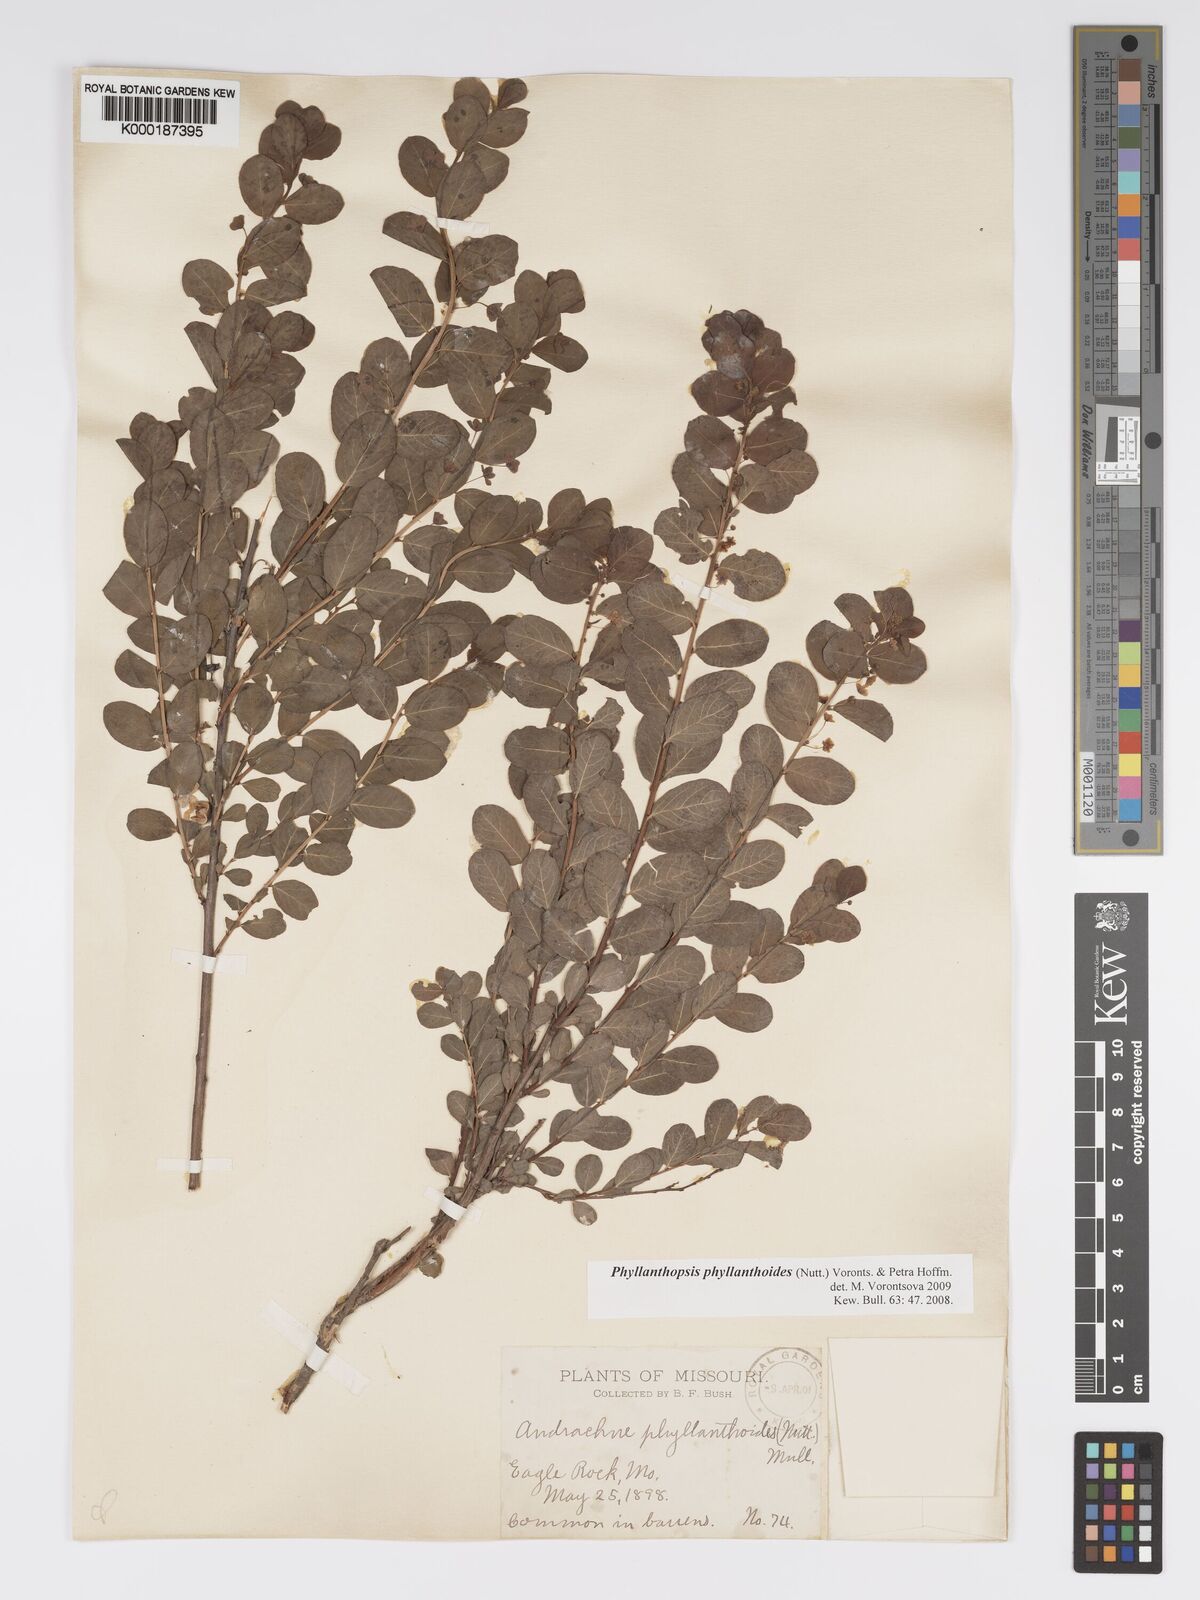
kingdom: Plantae
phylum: Tracheophyta
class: Magnoliopsida
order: Malpighiales
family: Phyllanthaceae
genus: Andrachne
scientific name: Andrachne
